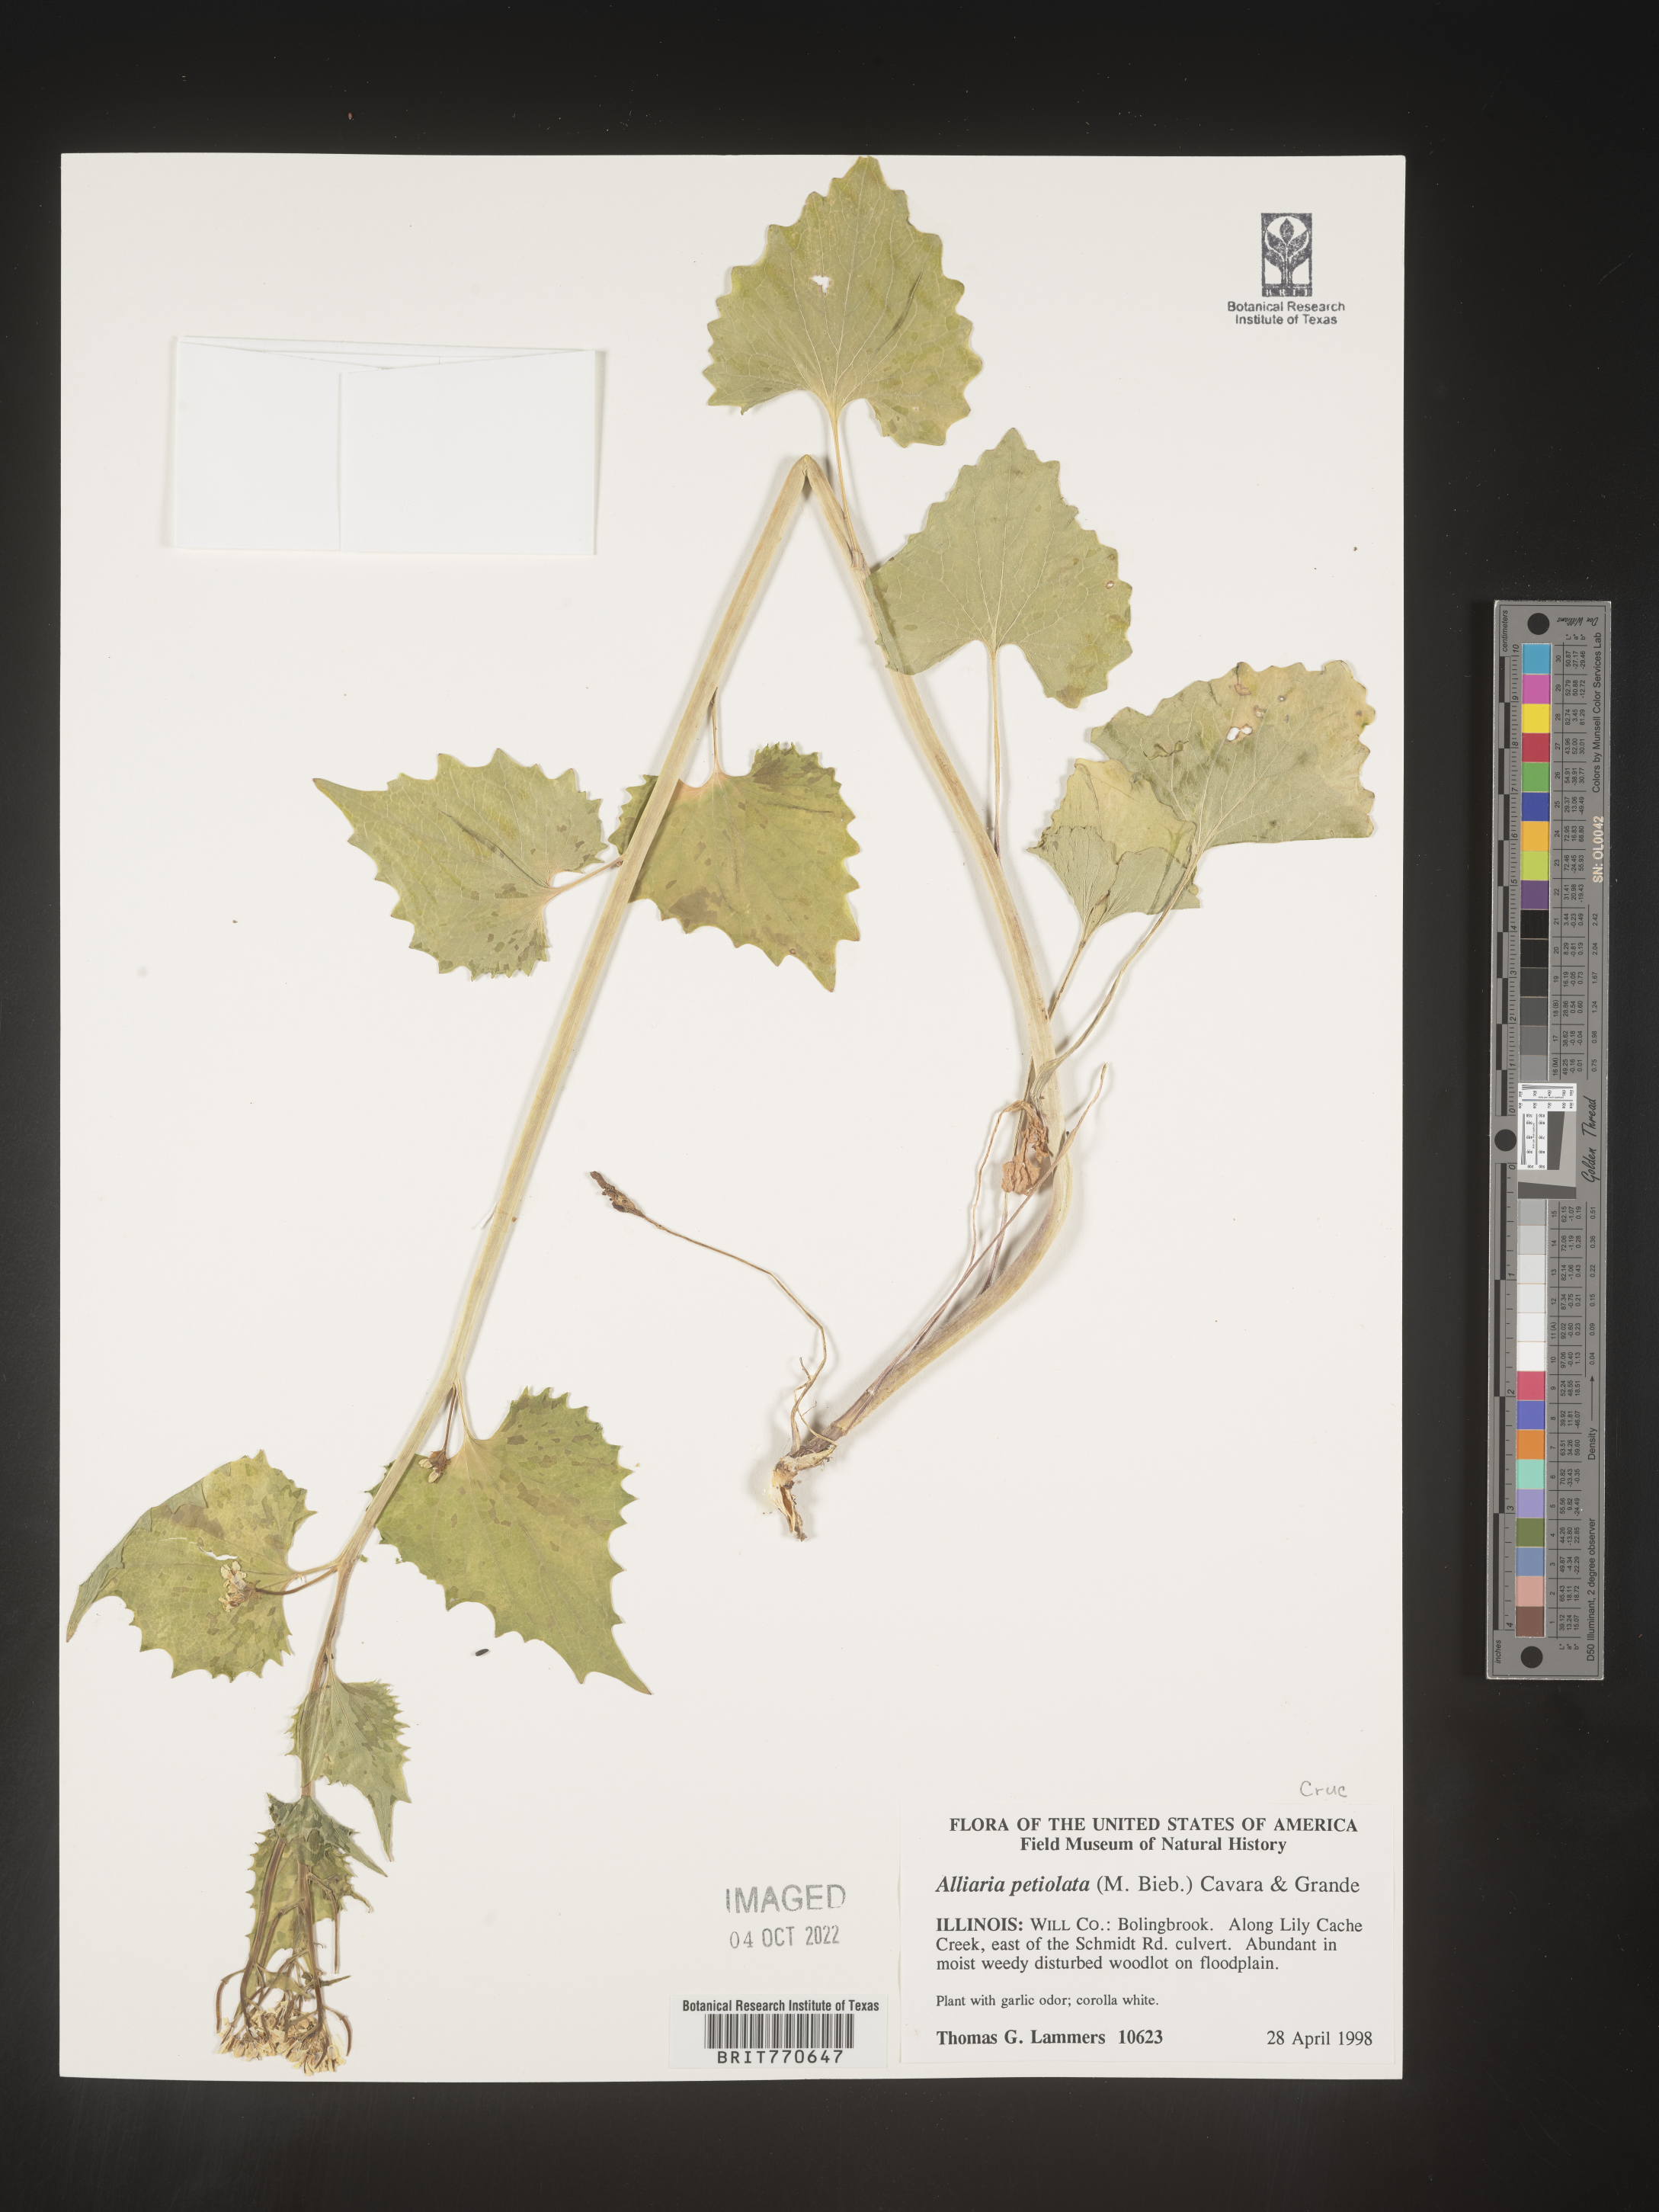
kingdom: Plantae
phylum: Tracheophyta
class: Magnoliopsida
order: Brassicales
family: Brassicaceae
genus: Alliaria
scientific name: Alliaria
